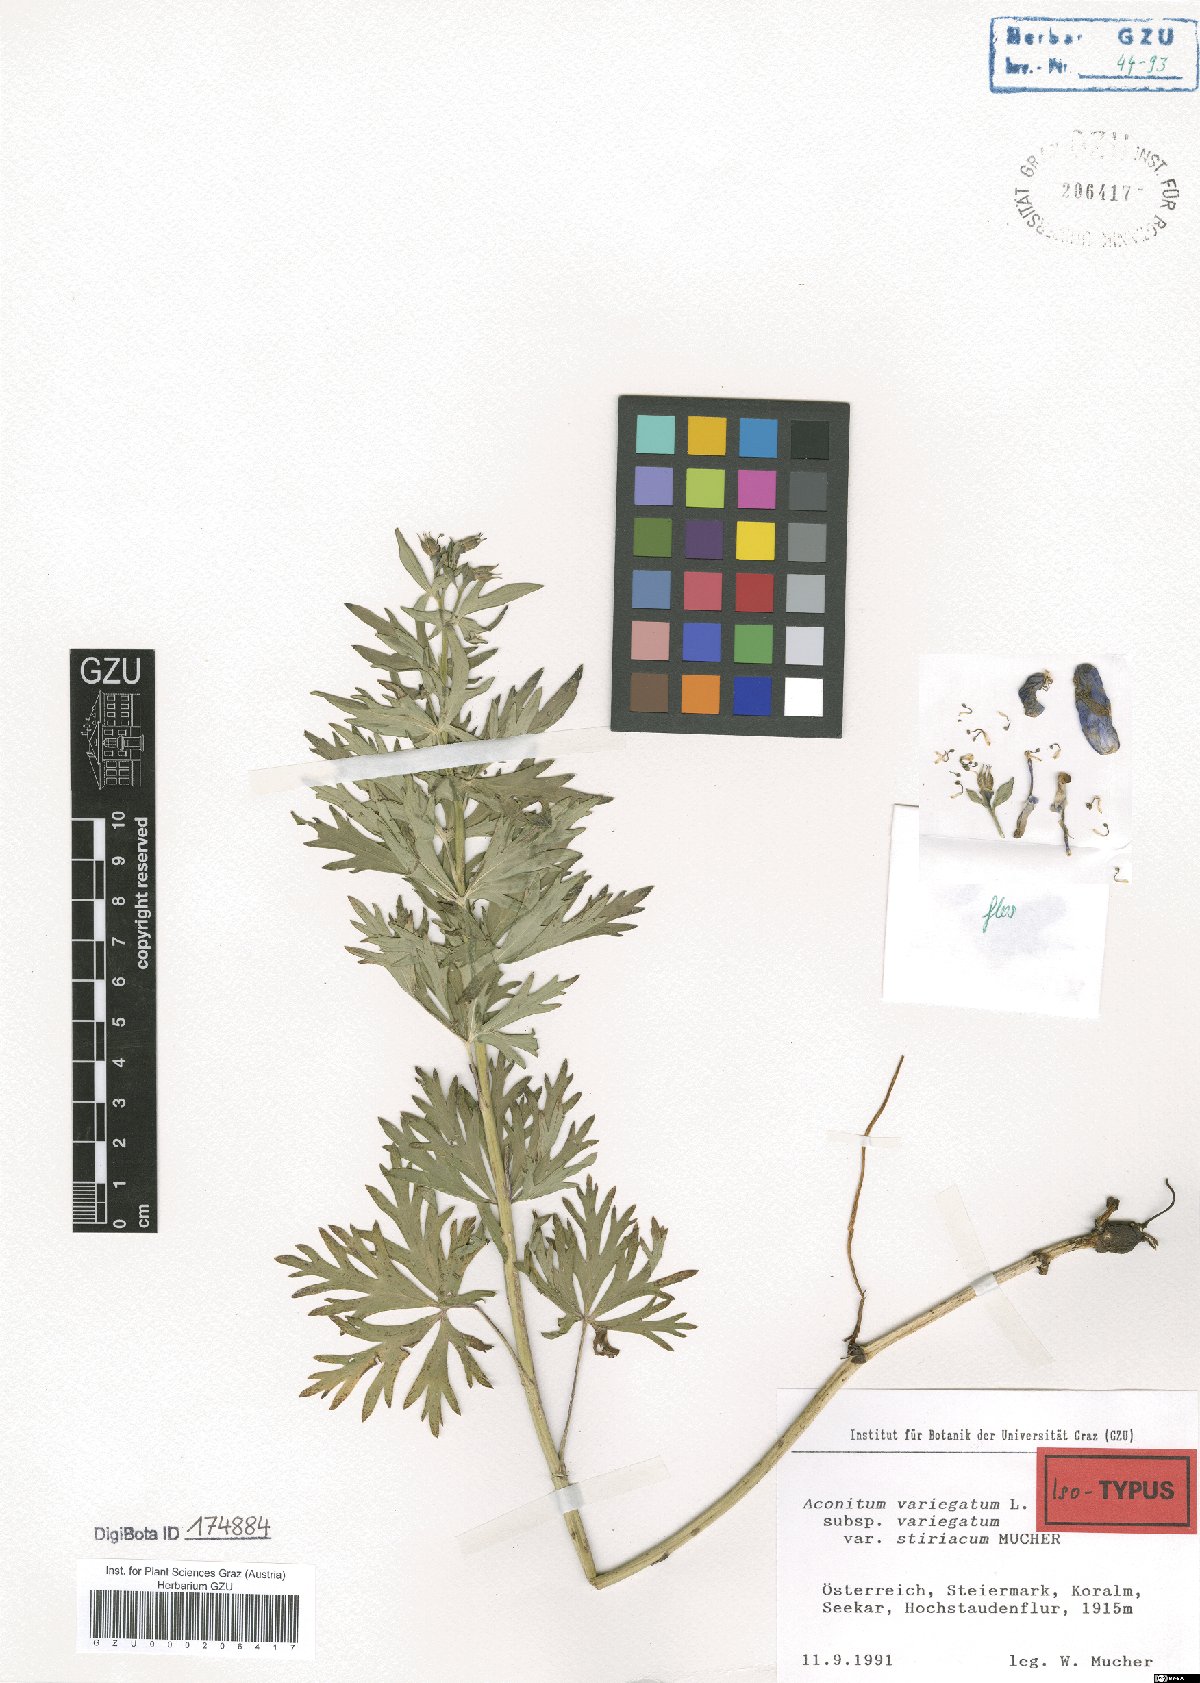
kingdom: Plantae
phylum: Tracheophyta
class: Magnoliopsida
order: Ranunculales
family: Ranunculaceae
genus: Aconitum
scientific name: Aconitum variegatum
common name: Manchurian monkshood
